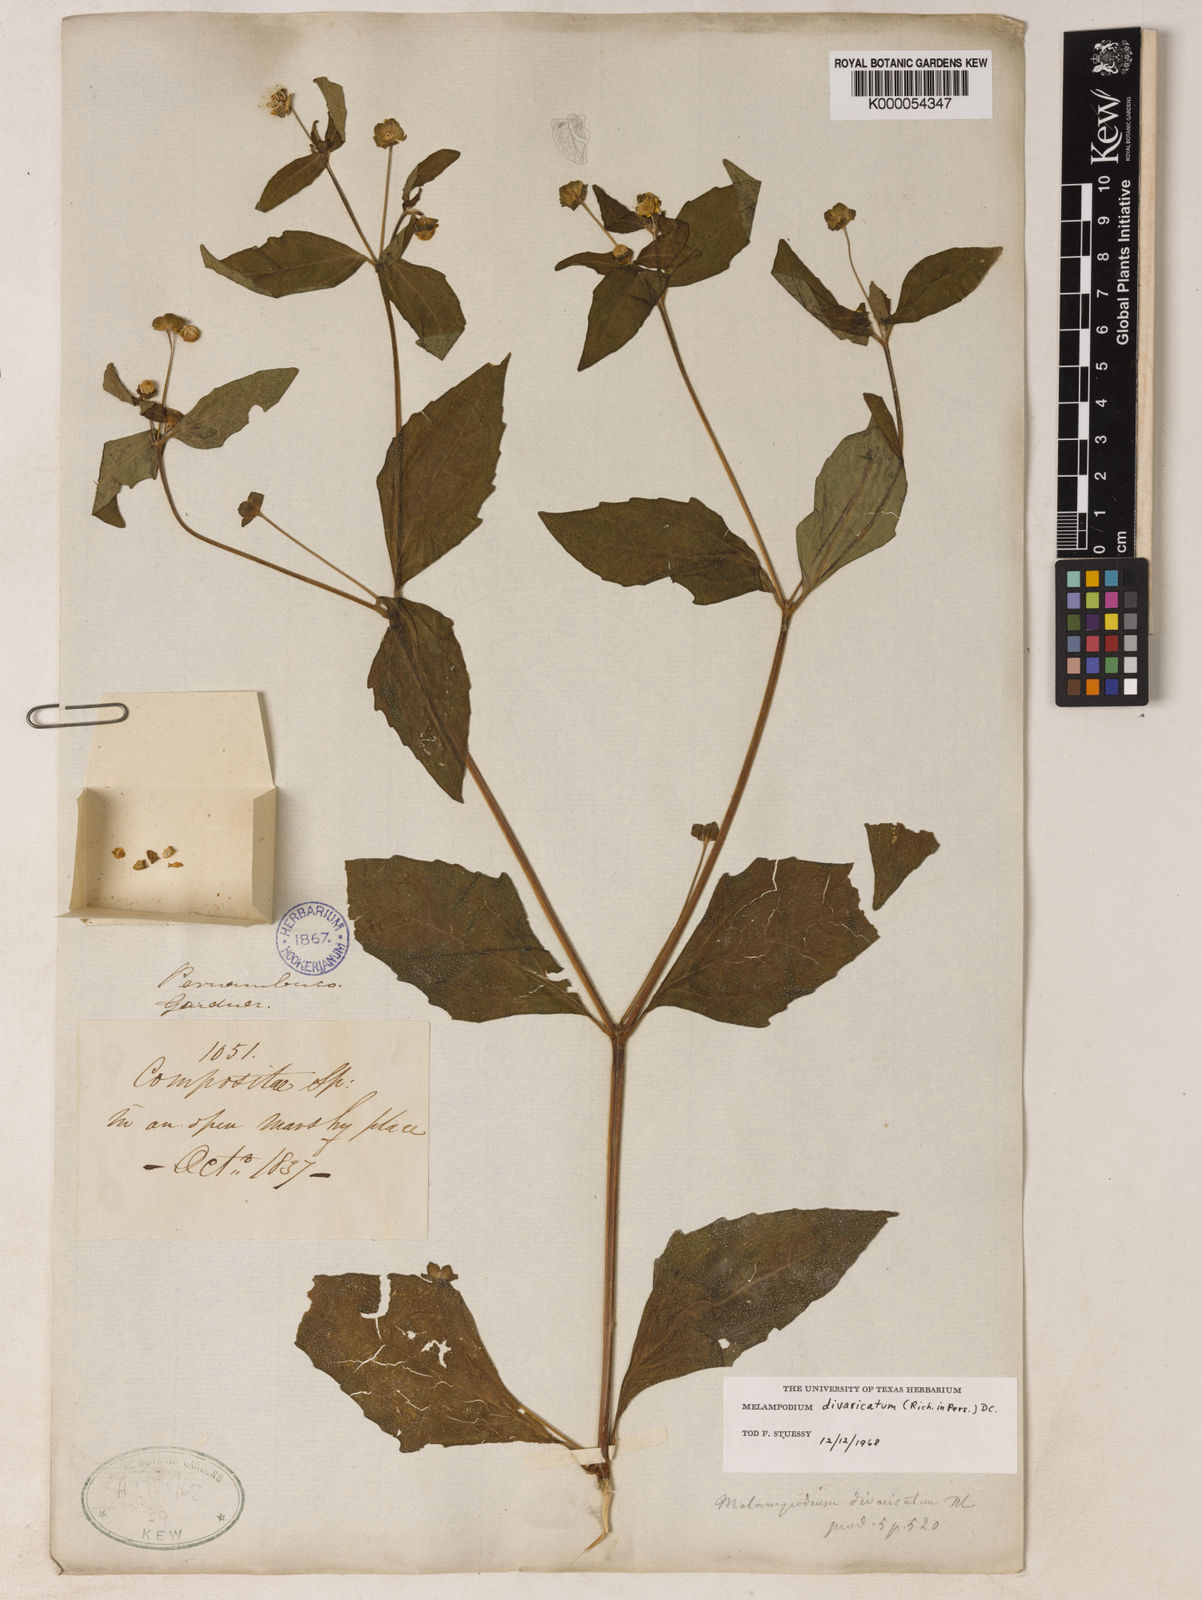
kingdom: Plantae
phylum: Tracheophyta
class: Magnoliopsida
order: Asterales
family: Asteraceae
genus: Melampodium
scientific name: Melampodium divaricatum
